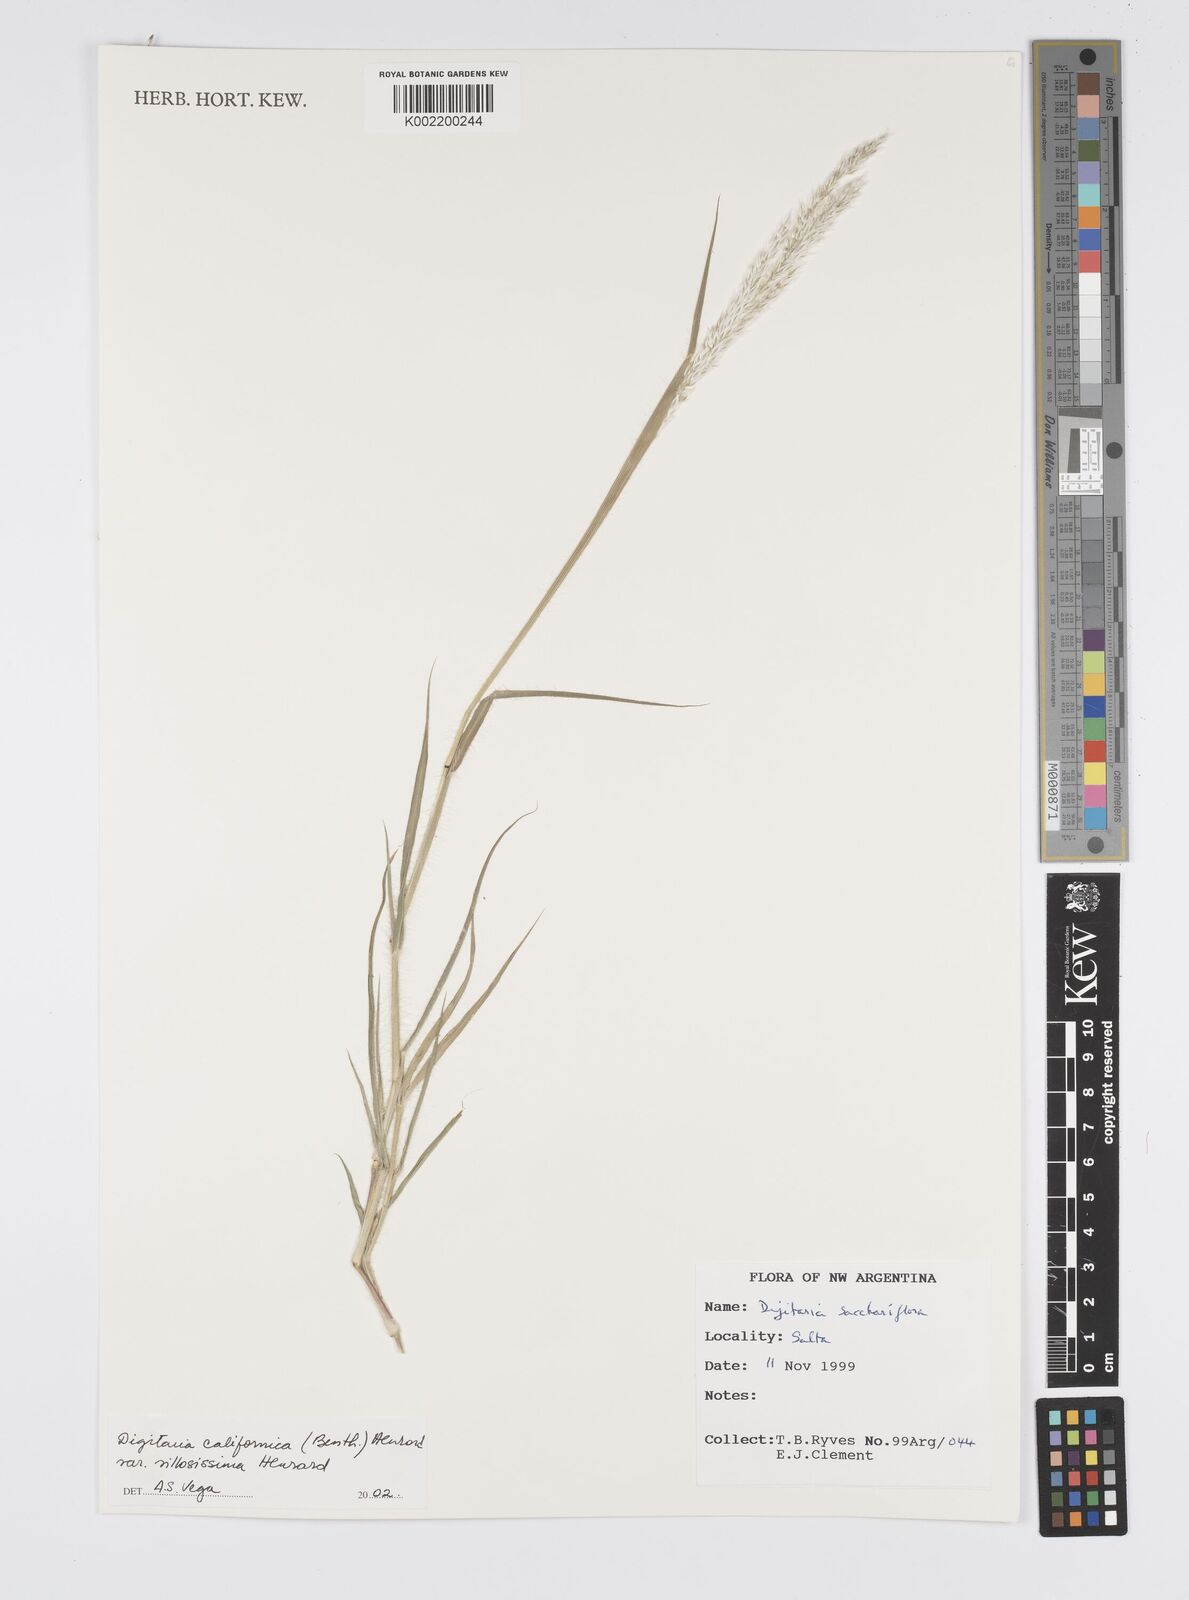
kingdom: Plantae
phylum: Tracheophyta
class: Liliopsida
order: Poales
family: Poaceae
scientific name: Poaceae
